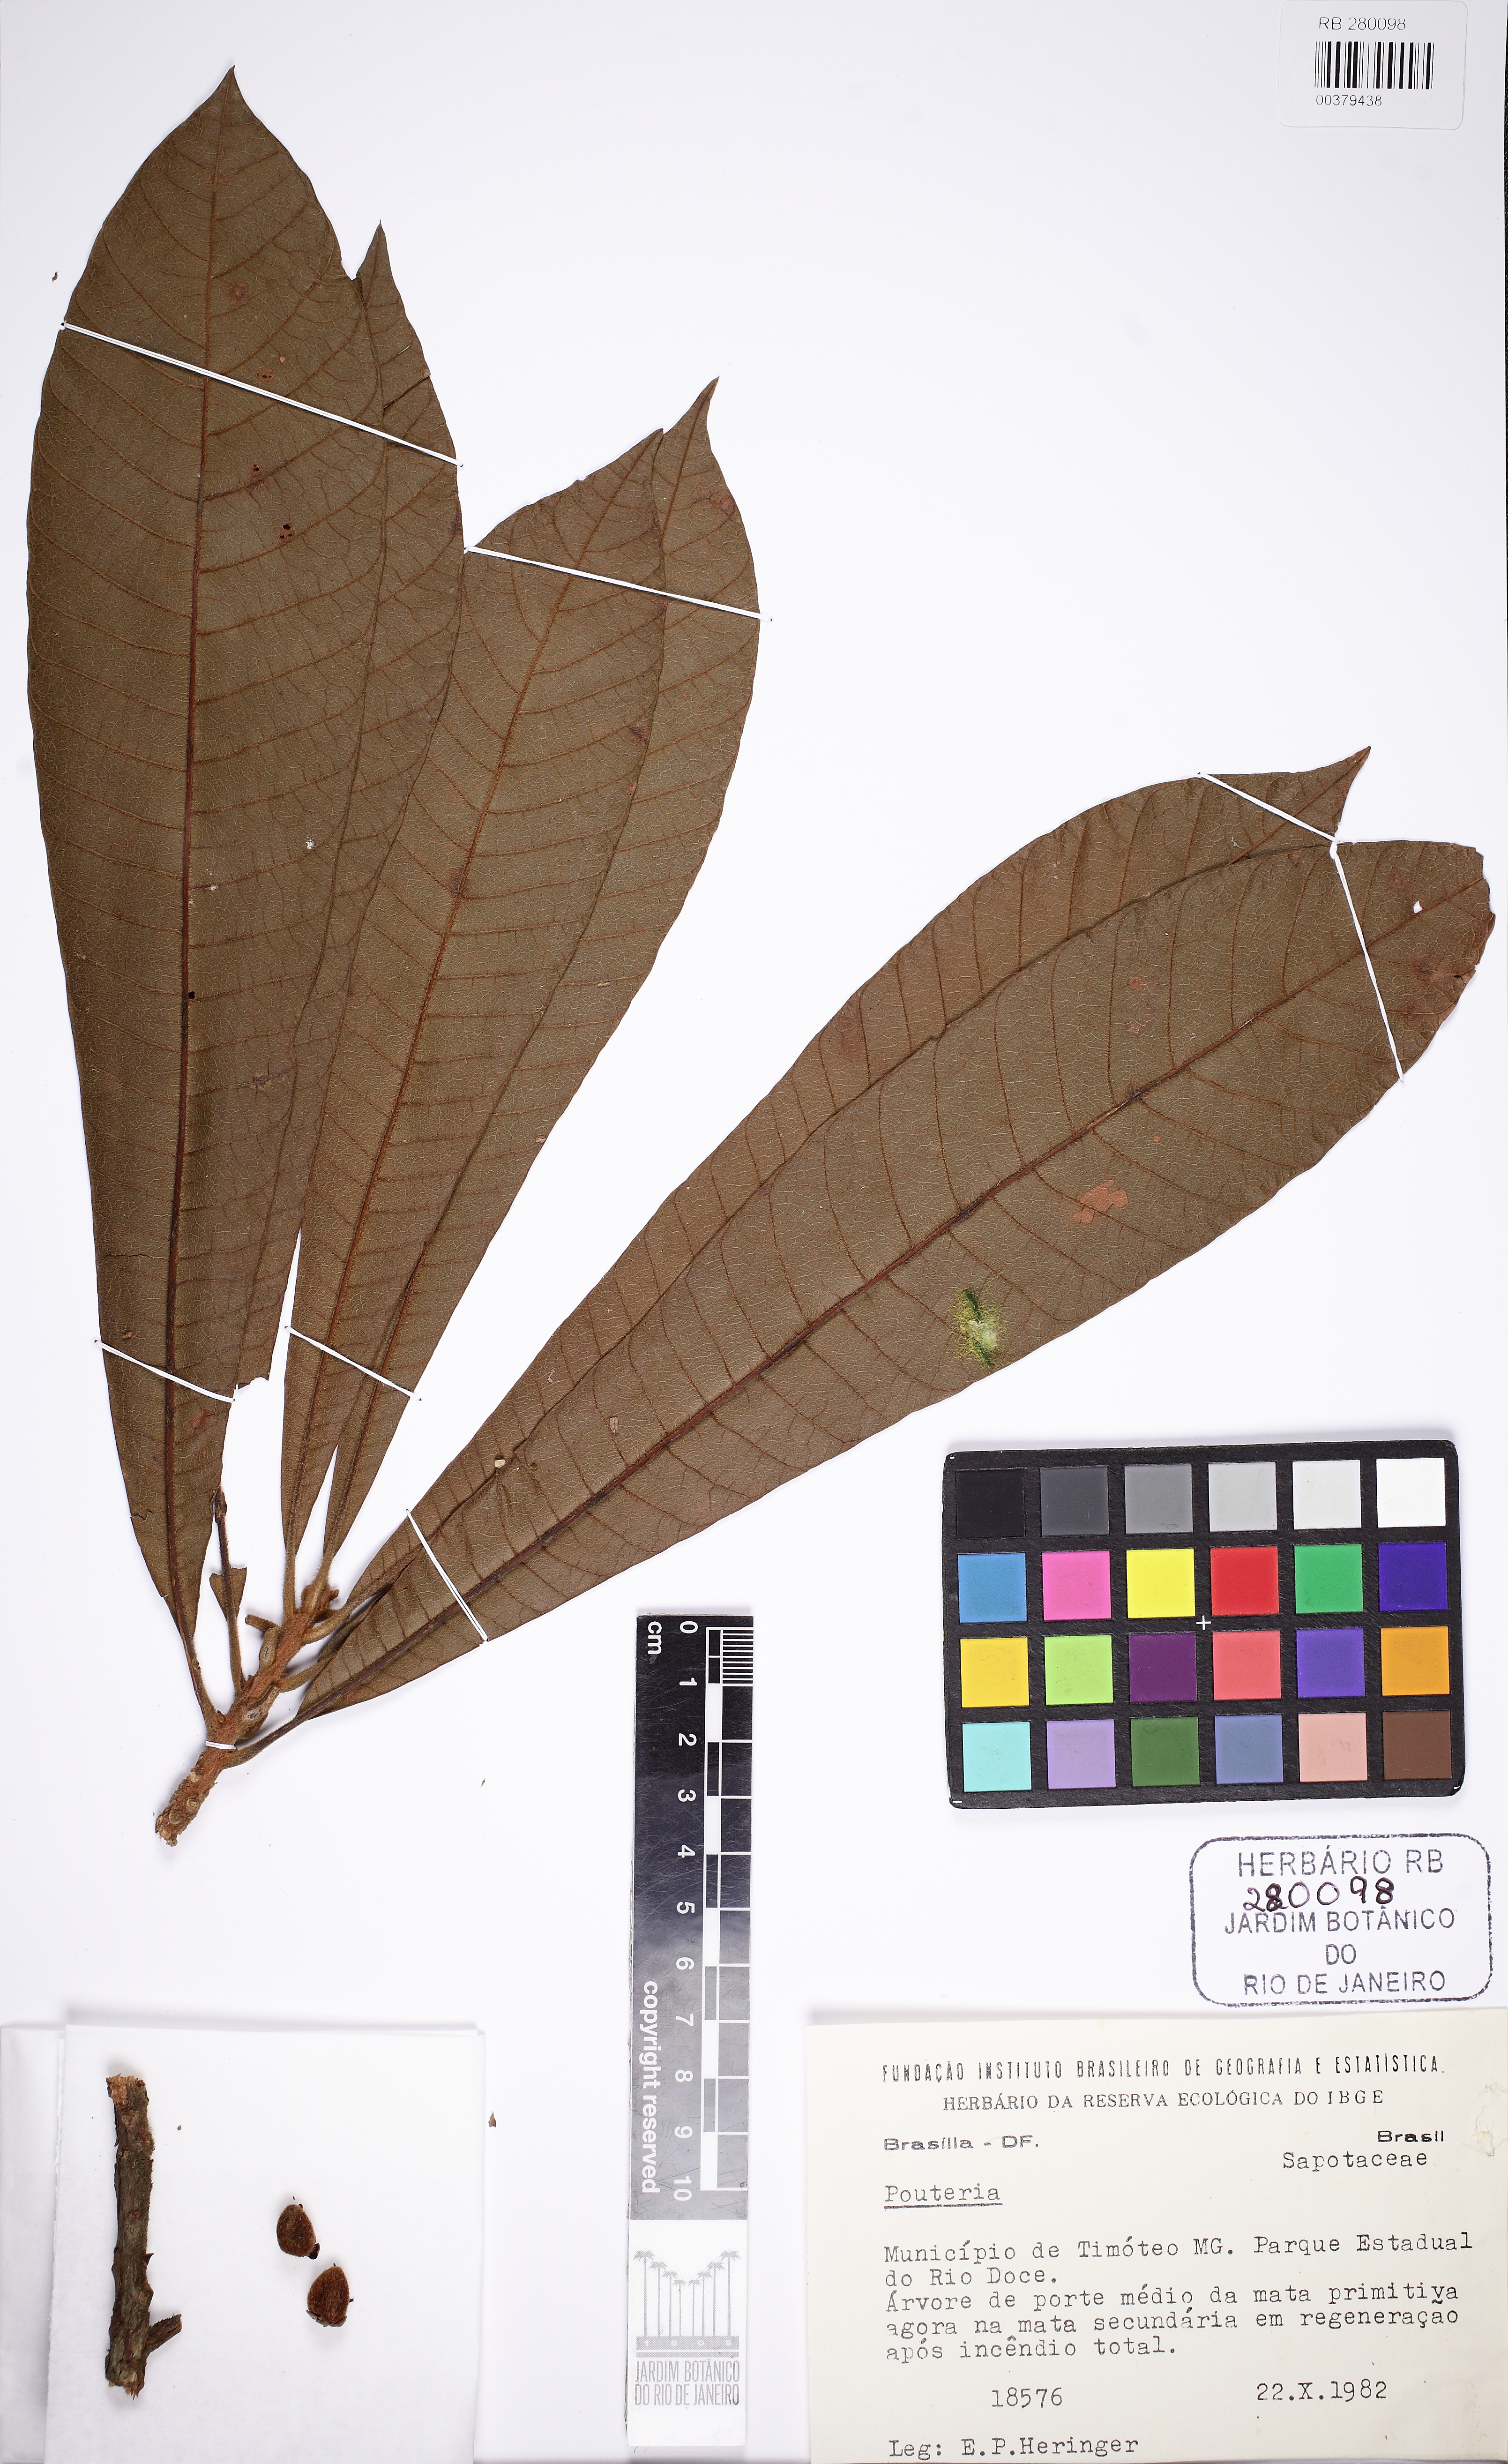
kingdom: Plantae
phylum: Tracheophyta
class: Magnoliopsida
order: Ericales
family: Sapotaceae
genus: Pouteria
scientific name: Pouteria torta
